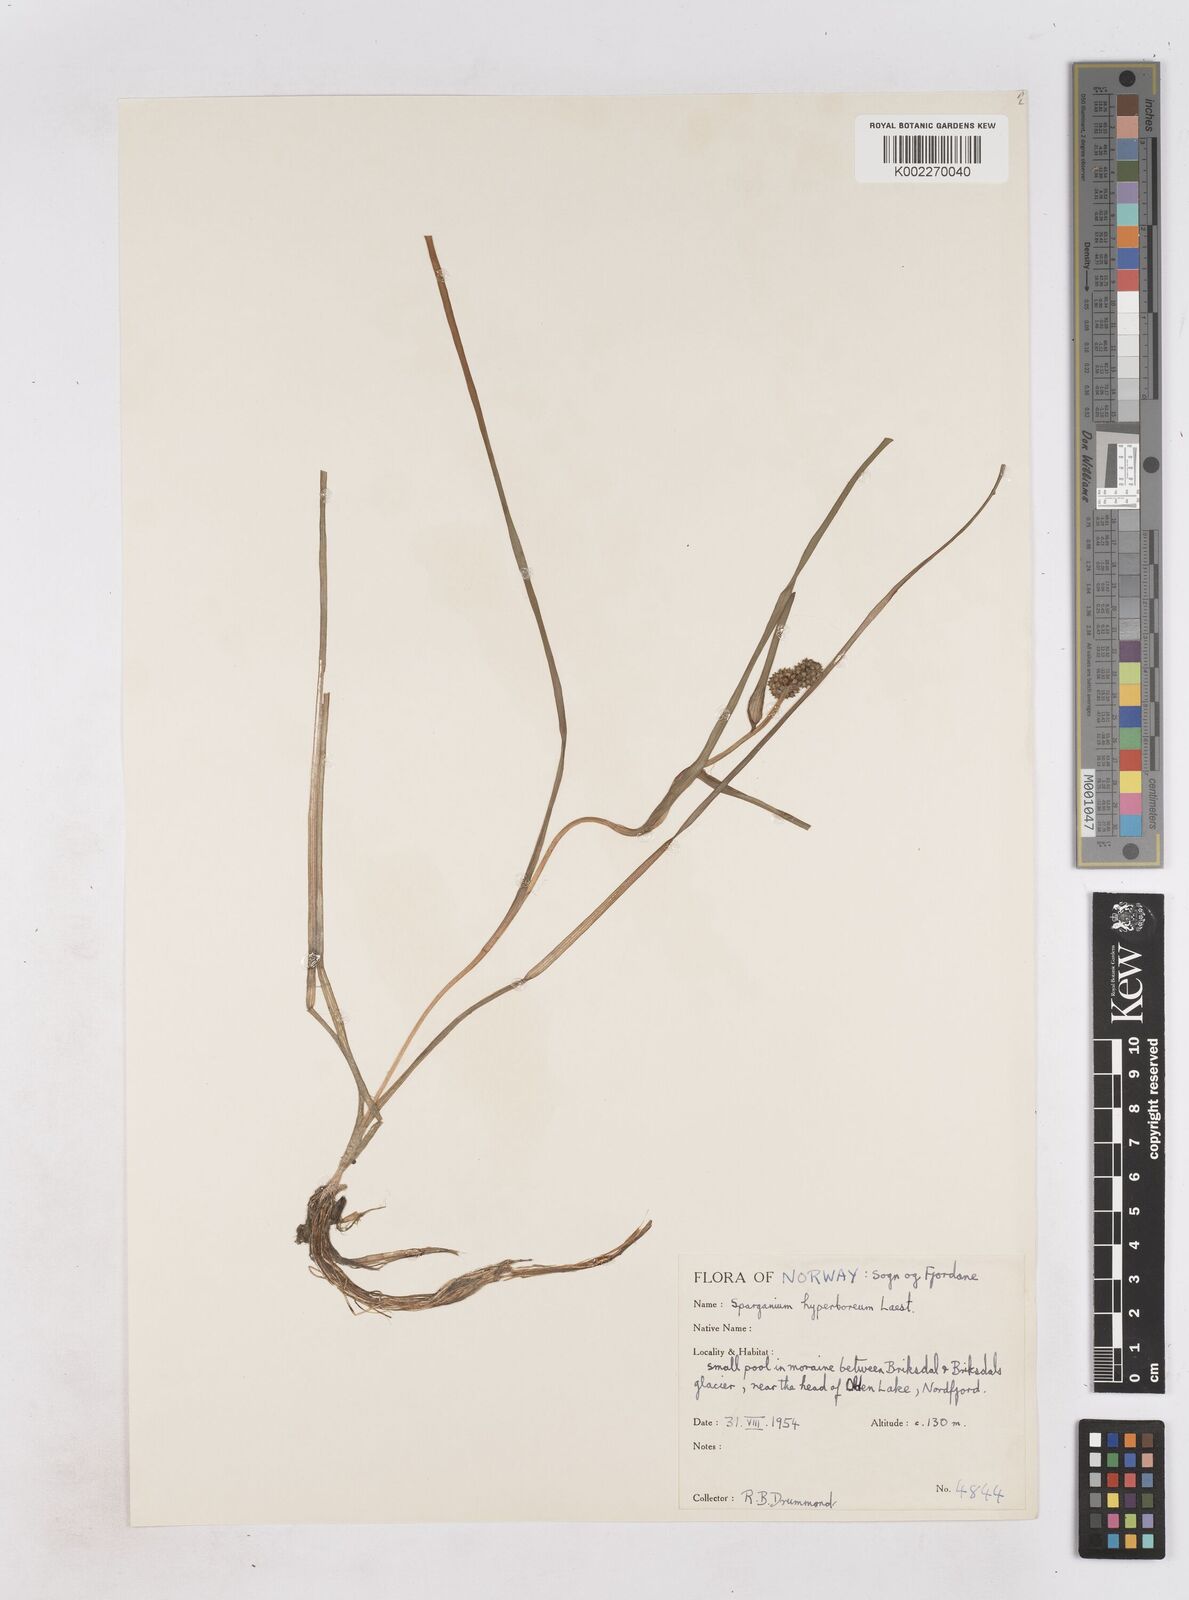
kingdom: Plantae
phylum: Tracheophyta
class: Liliopsida
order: Poales
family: Typhaceae
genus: Sparganium
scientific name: Sparganium hyperboreum
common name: Arctic burreed
